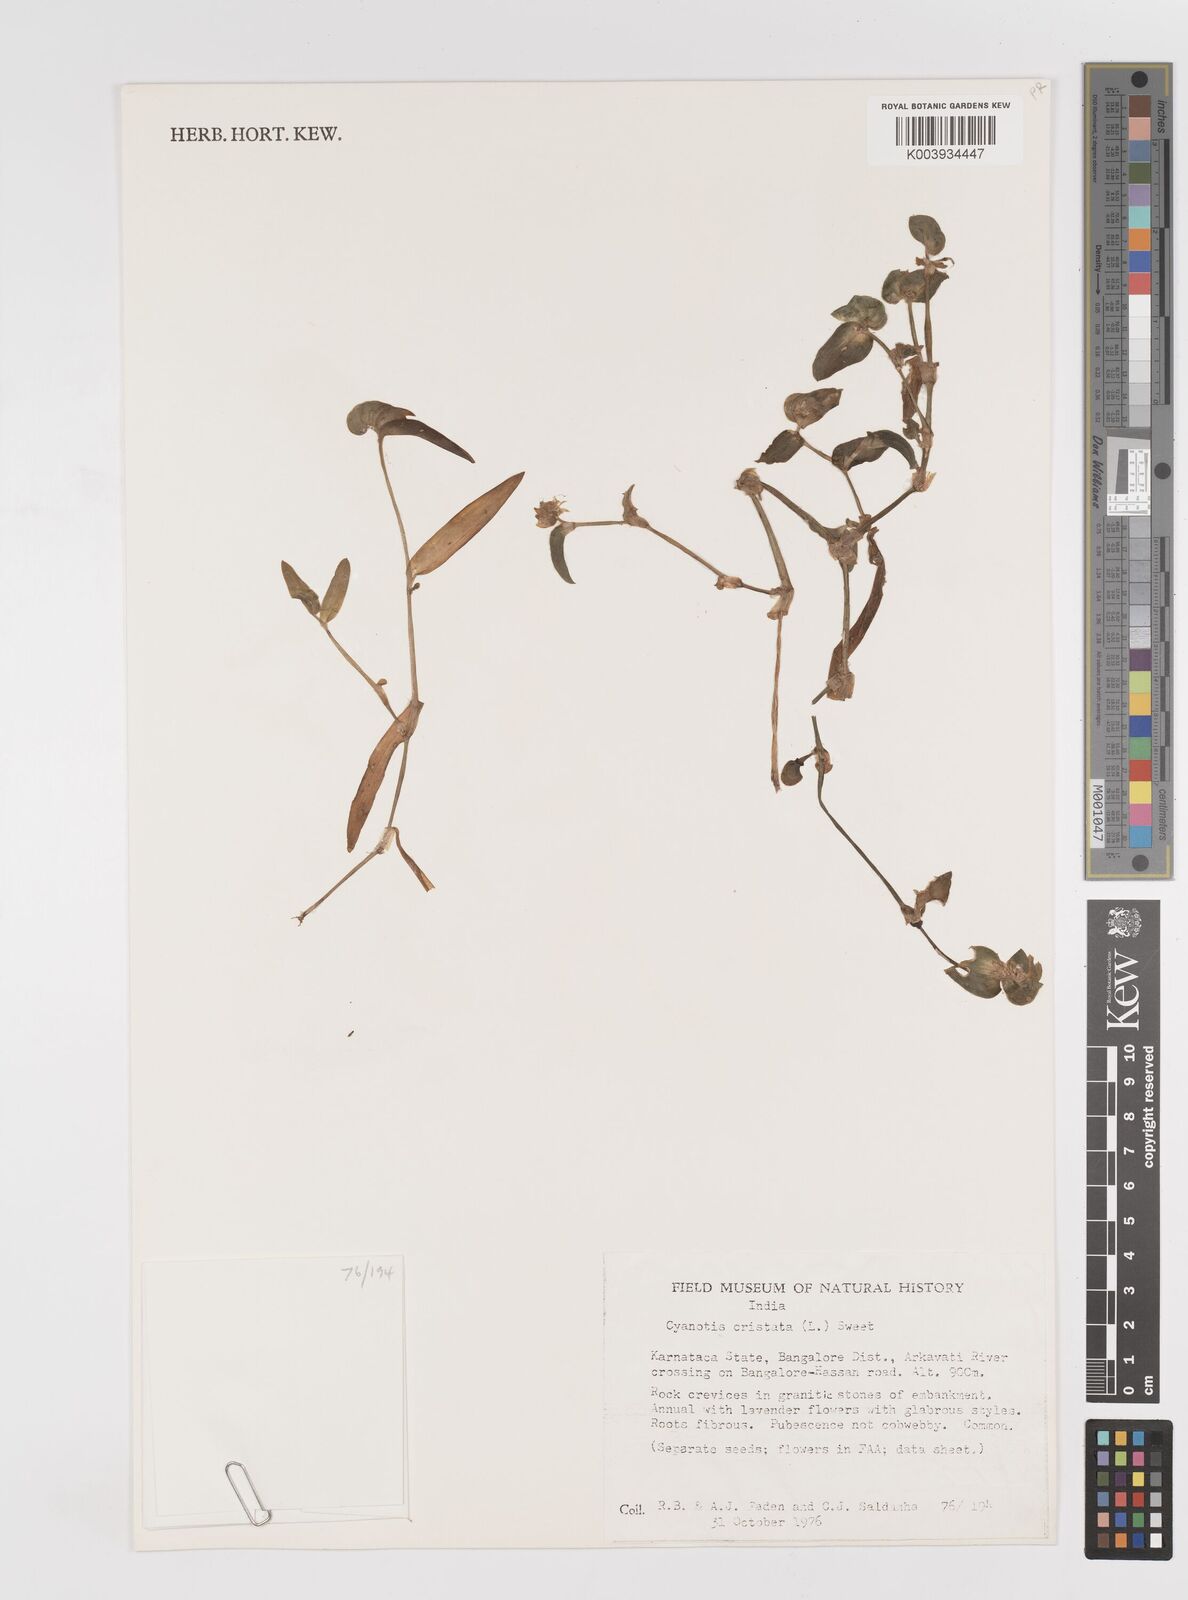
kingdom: Plantae
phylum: Tracheophyta
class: Liliopsida
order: Commelinales
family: Commelinaceae
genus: Cyanotis
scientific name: Cyanotis cristata
